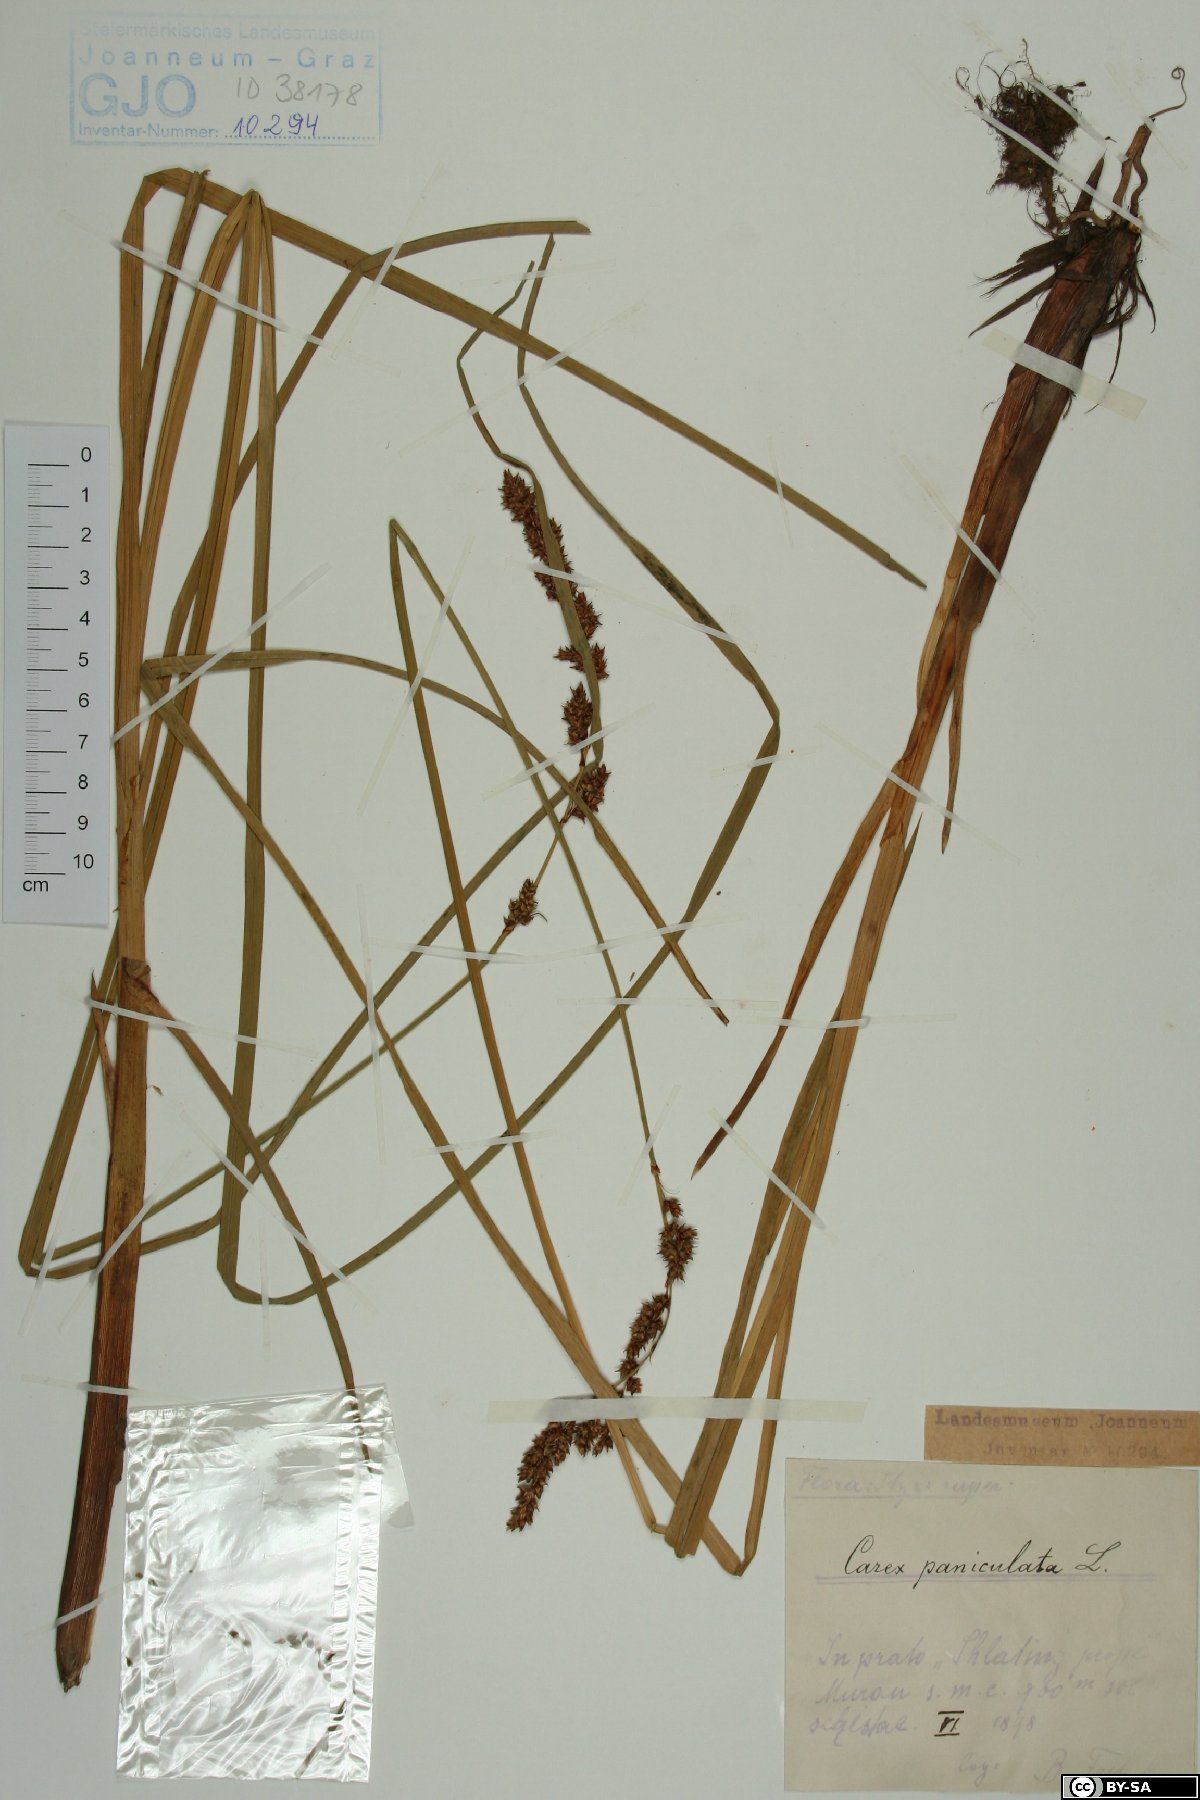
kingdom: Plantae
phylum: Tracheophyta
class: Liliopsida
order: Poales
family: Cyperaceae
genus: Carex
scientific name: Carex paniculata
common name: Greater tussock-sedge
